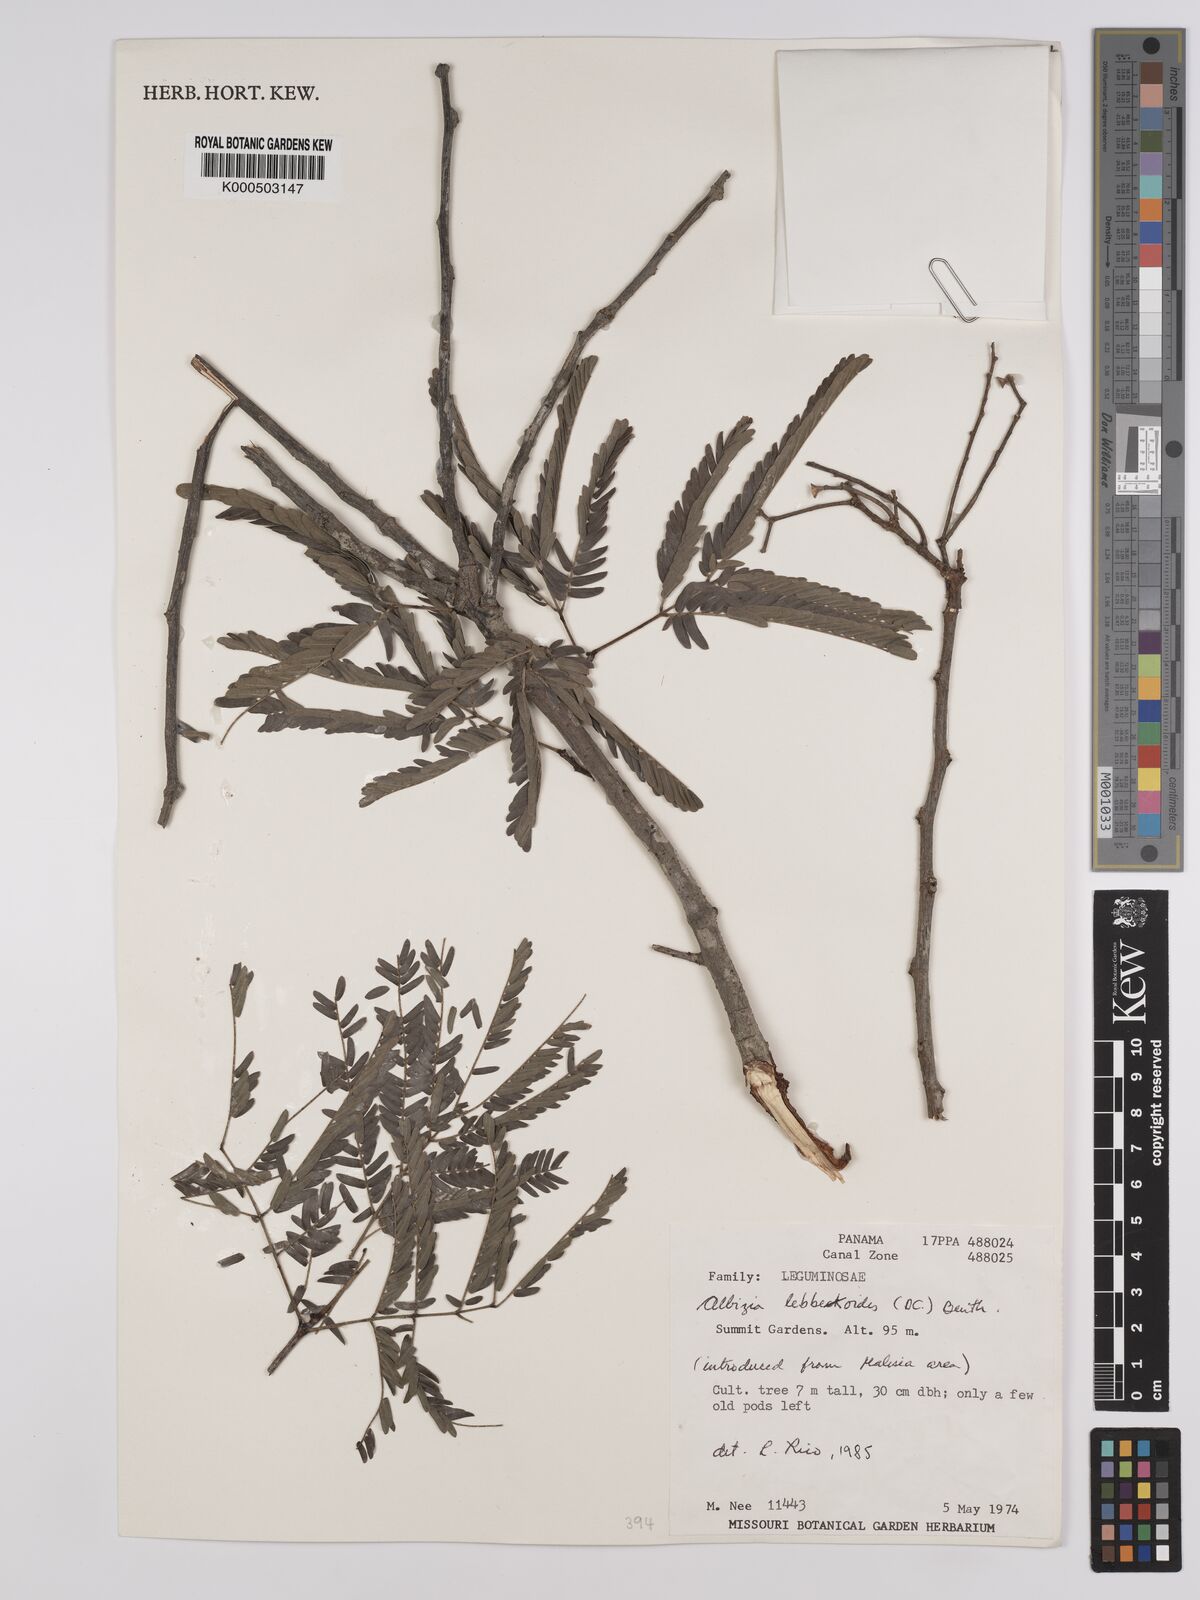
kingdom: Plantae
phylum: Tracheophyta
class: Magnoliopsida
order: Fabales
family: Fabaceae
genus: Albizia
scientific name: Albizia lebbekoides
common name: Indian albizia
